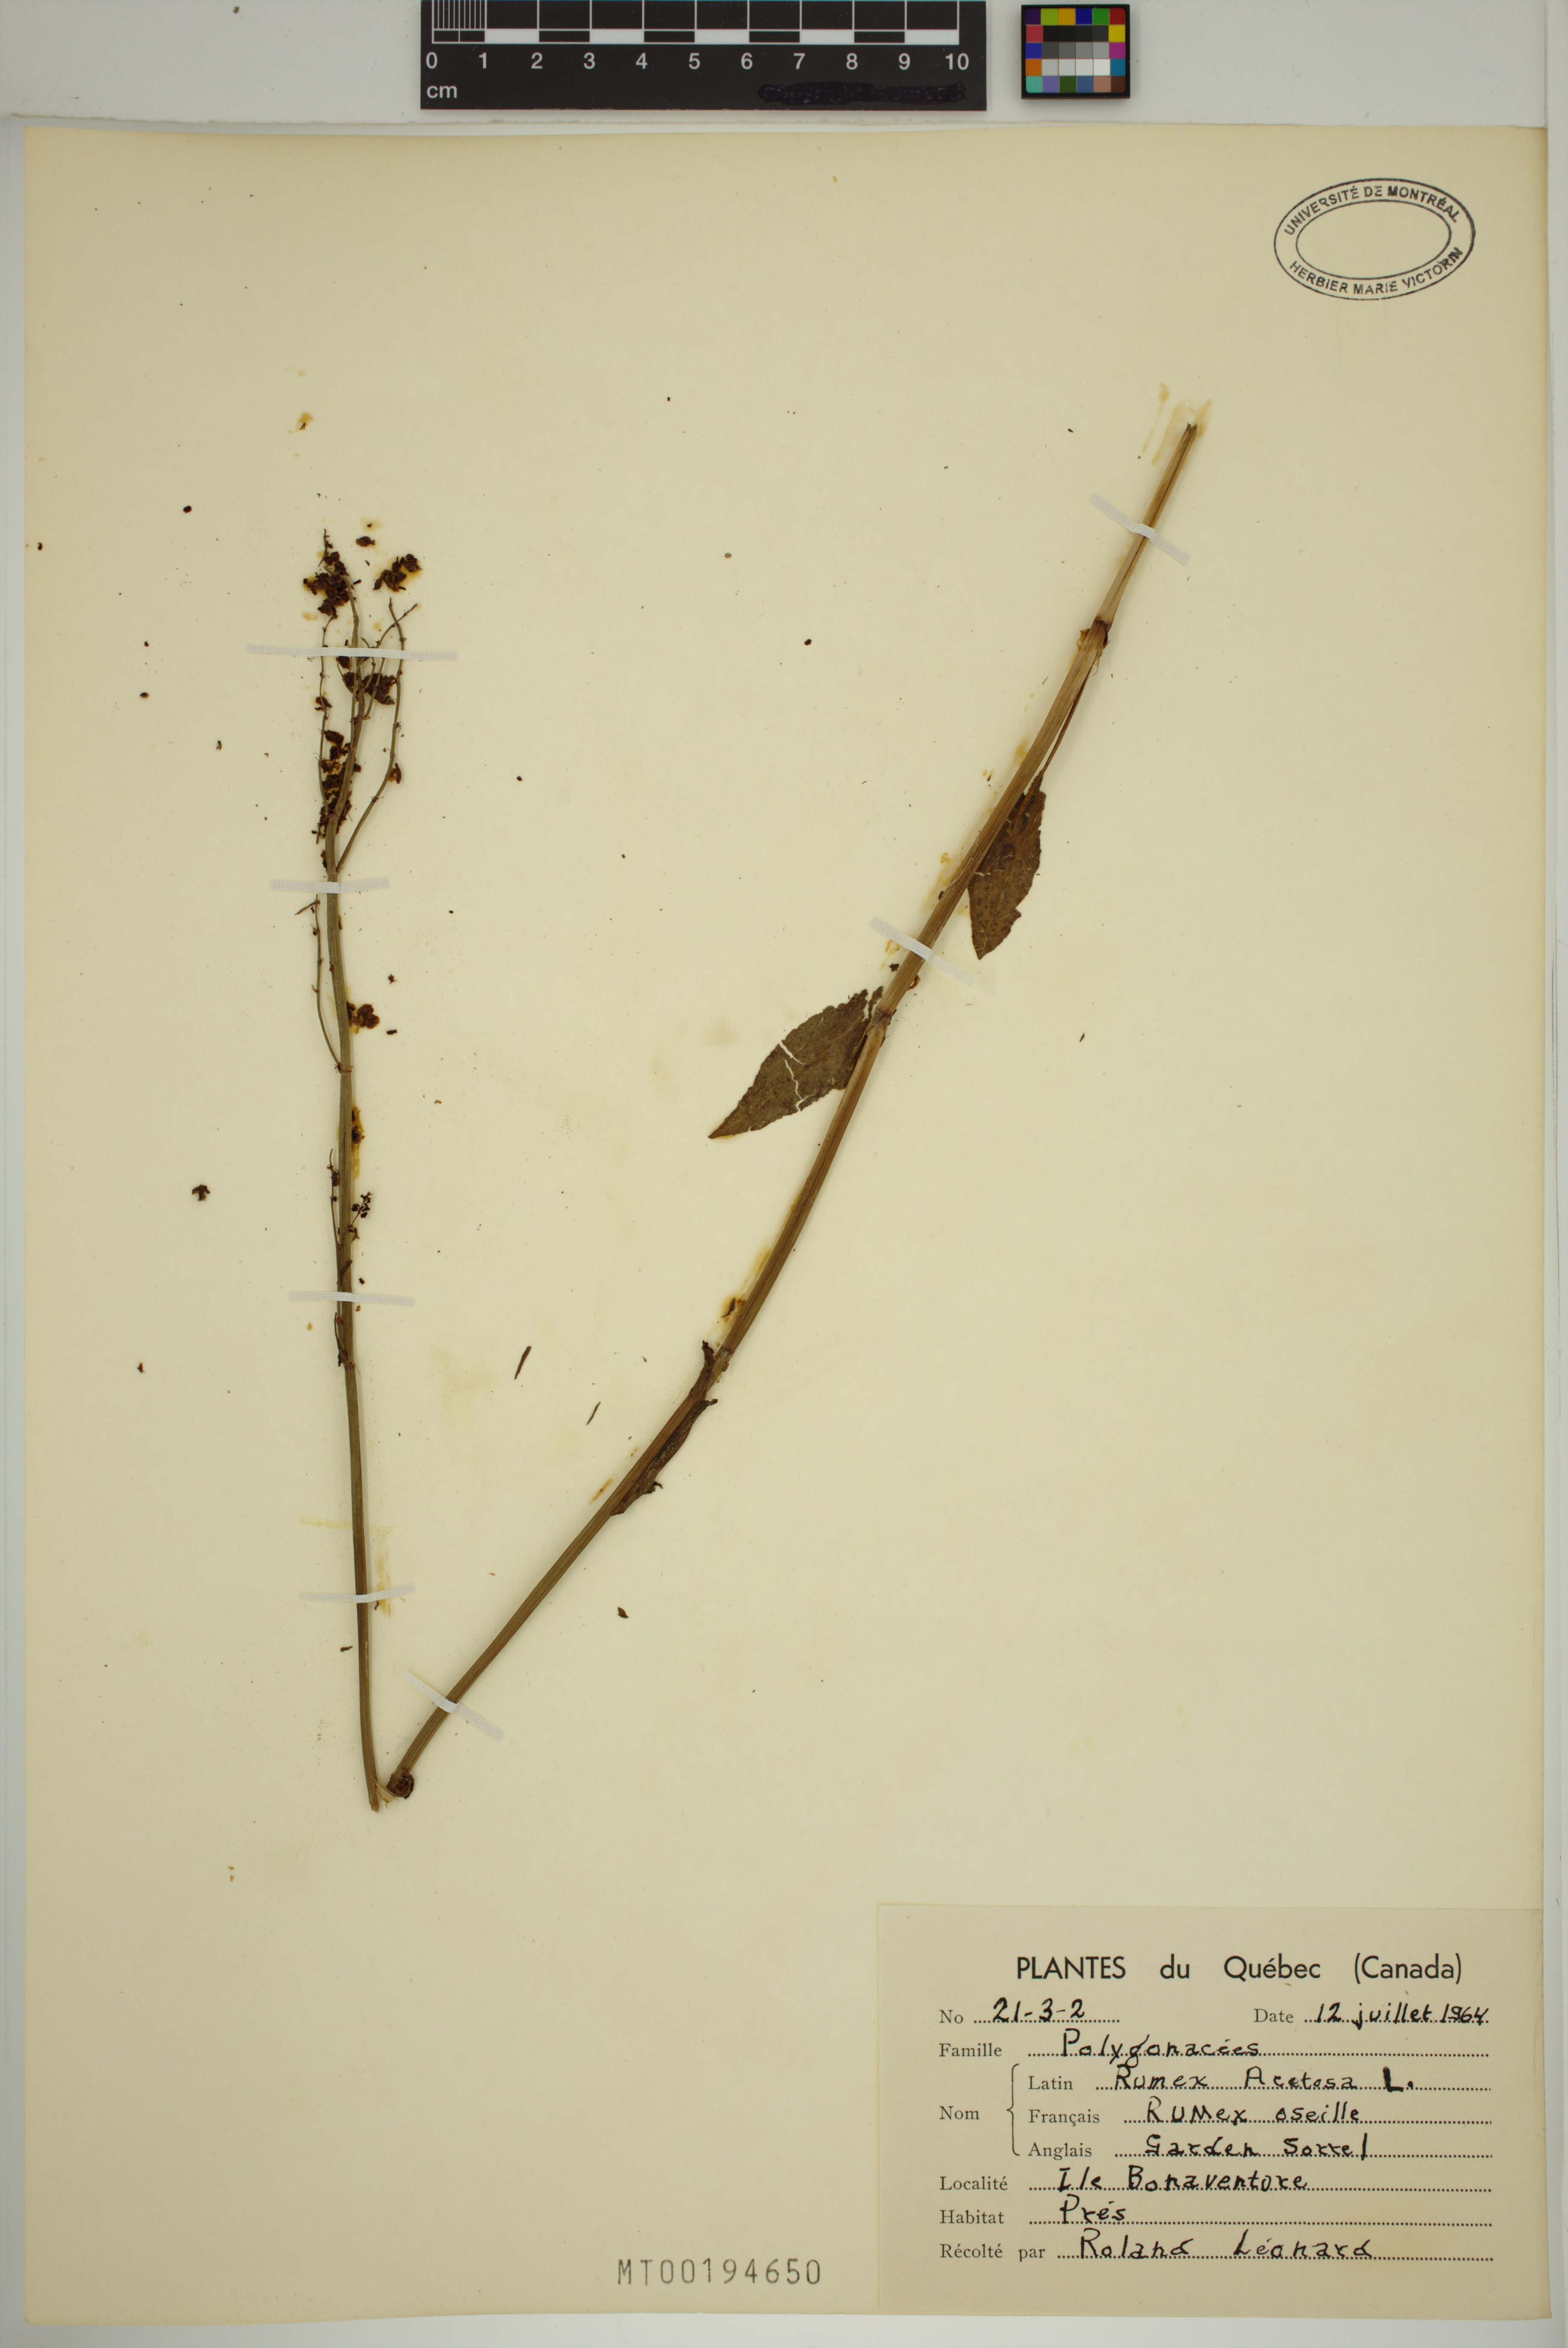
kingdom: Plantae
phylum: Tracheophyta
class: Magnoliopsida
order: Caryophyllales
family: Polygonaceae
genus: Rumex
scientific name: Rumex acetosa
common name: Garden sorrel
